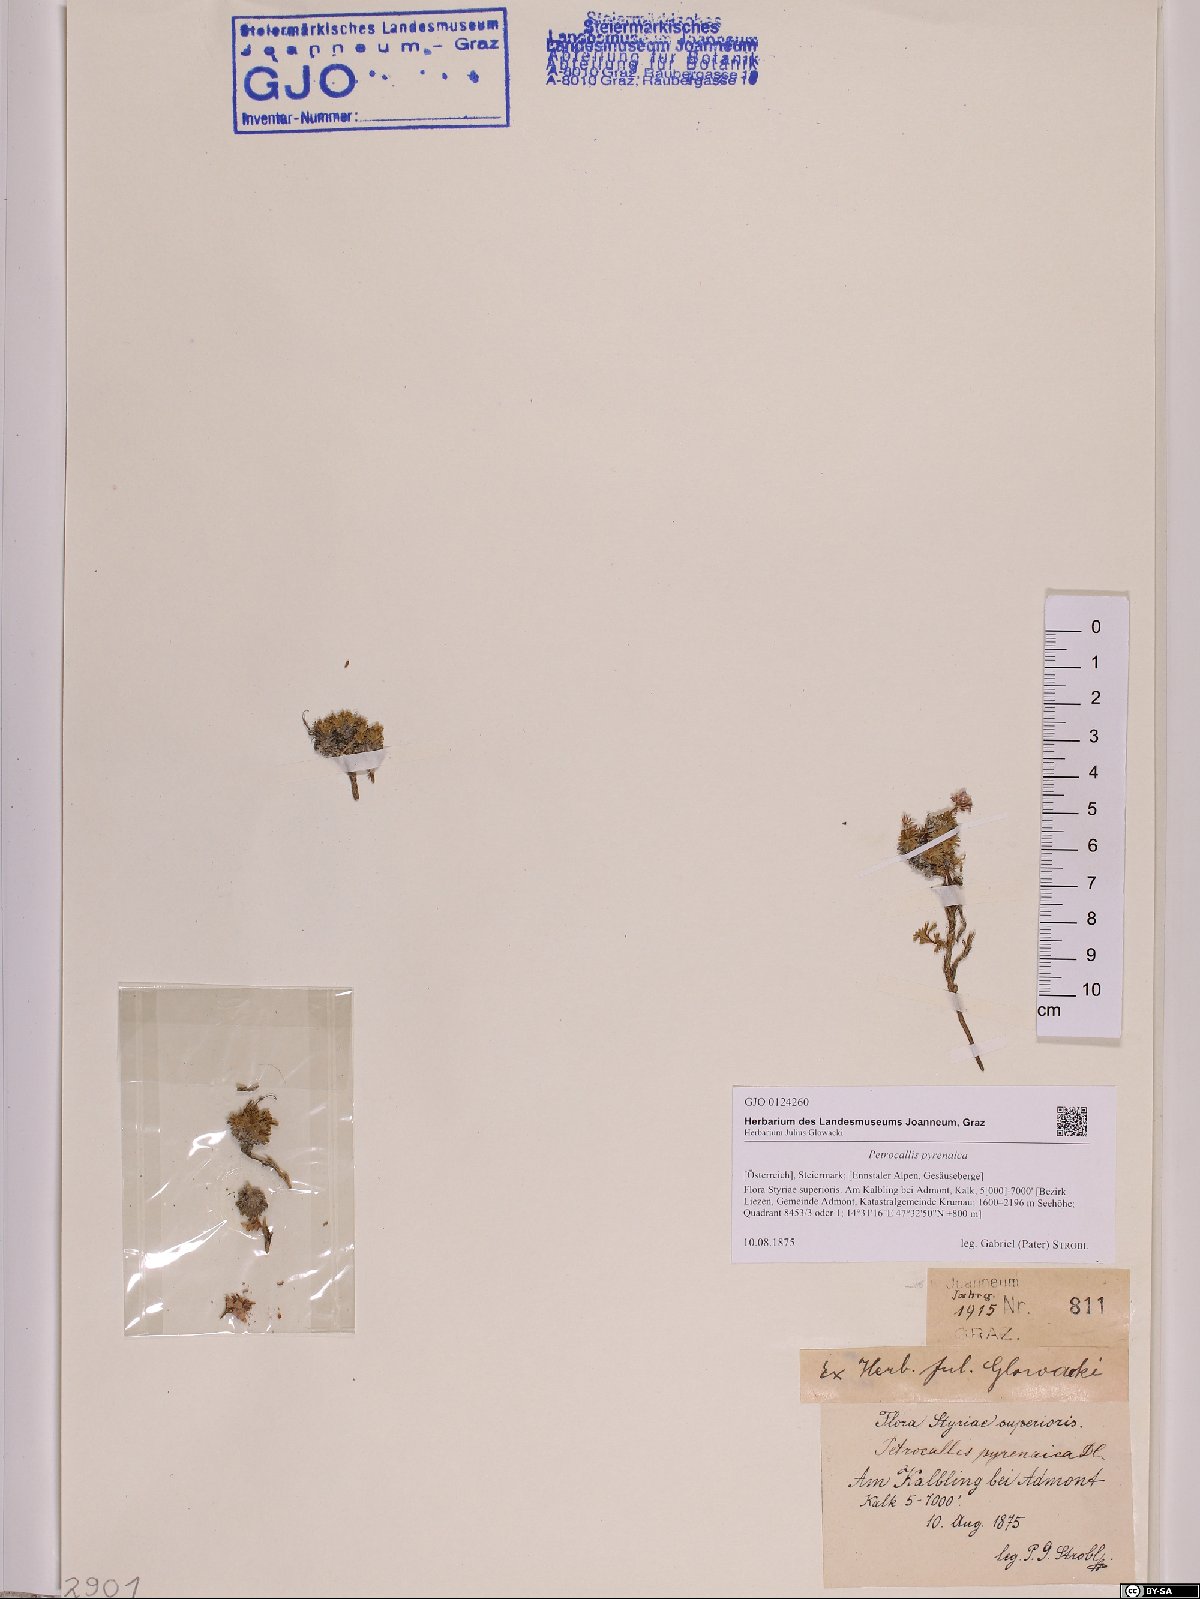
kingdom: Plantae
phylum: Tracheophyta
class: Magnoliopsida
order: Brassicales
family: Brassicaceae
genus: Petrocallis
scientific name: Petrocallis pyrenaica
